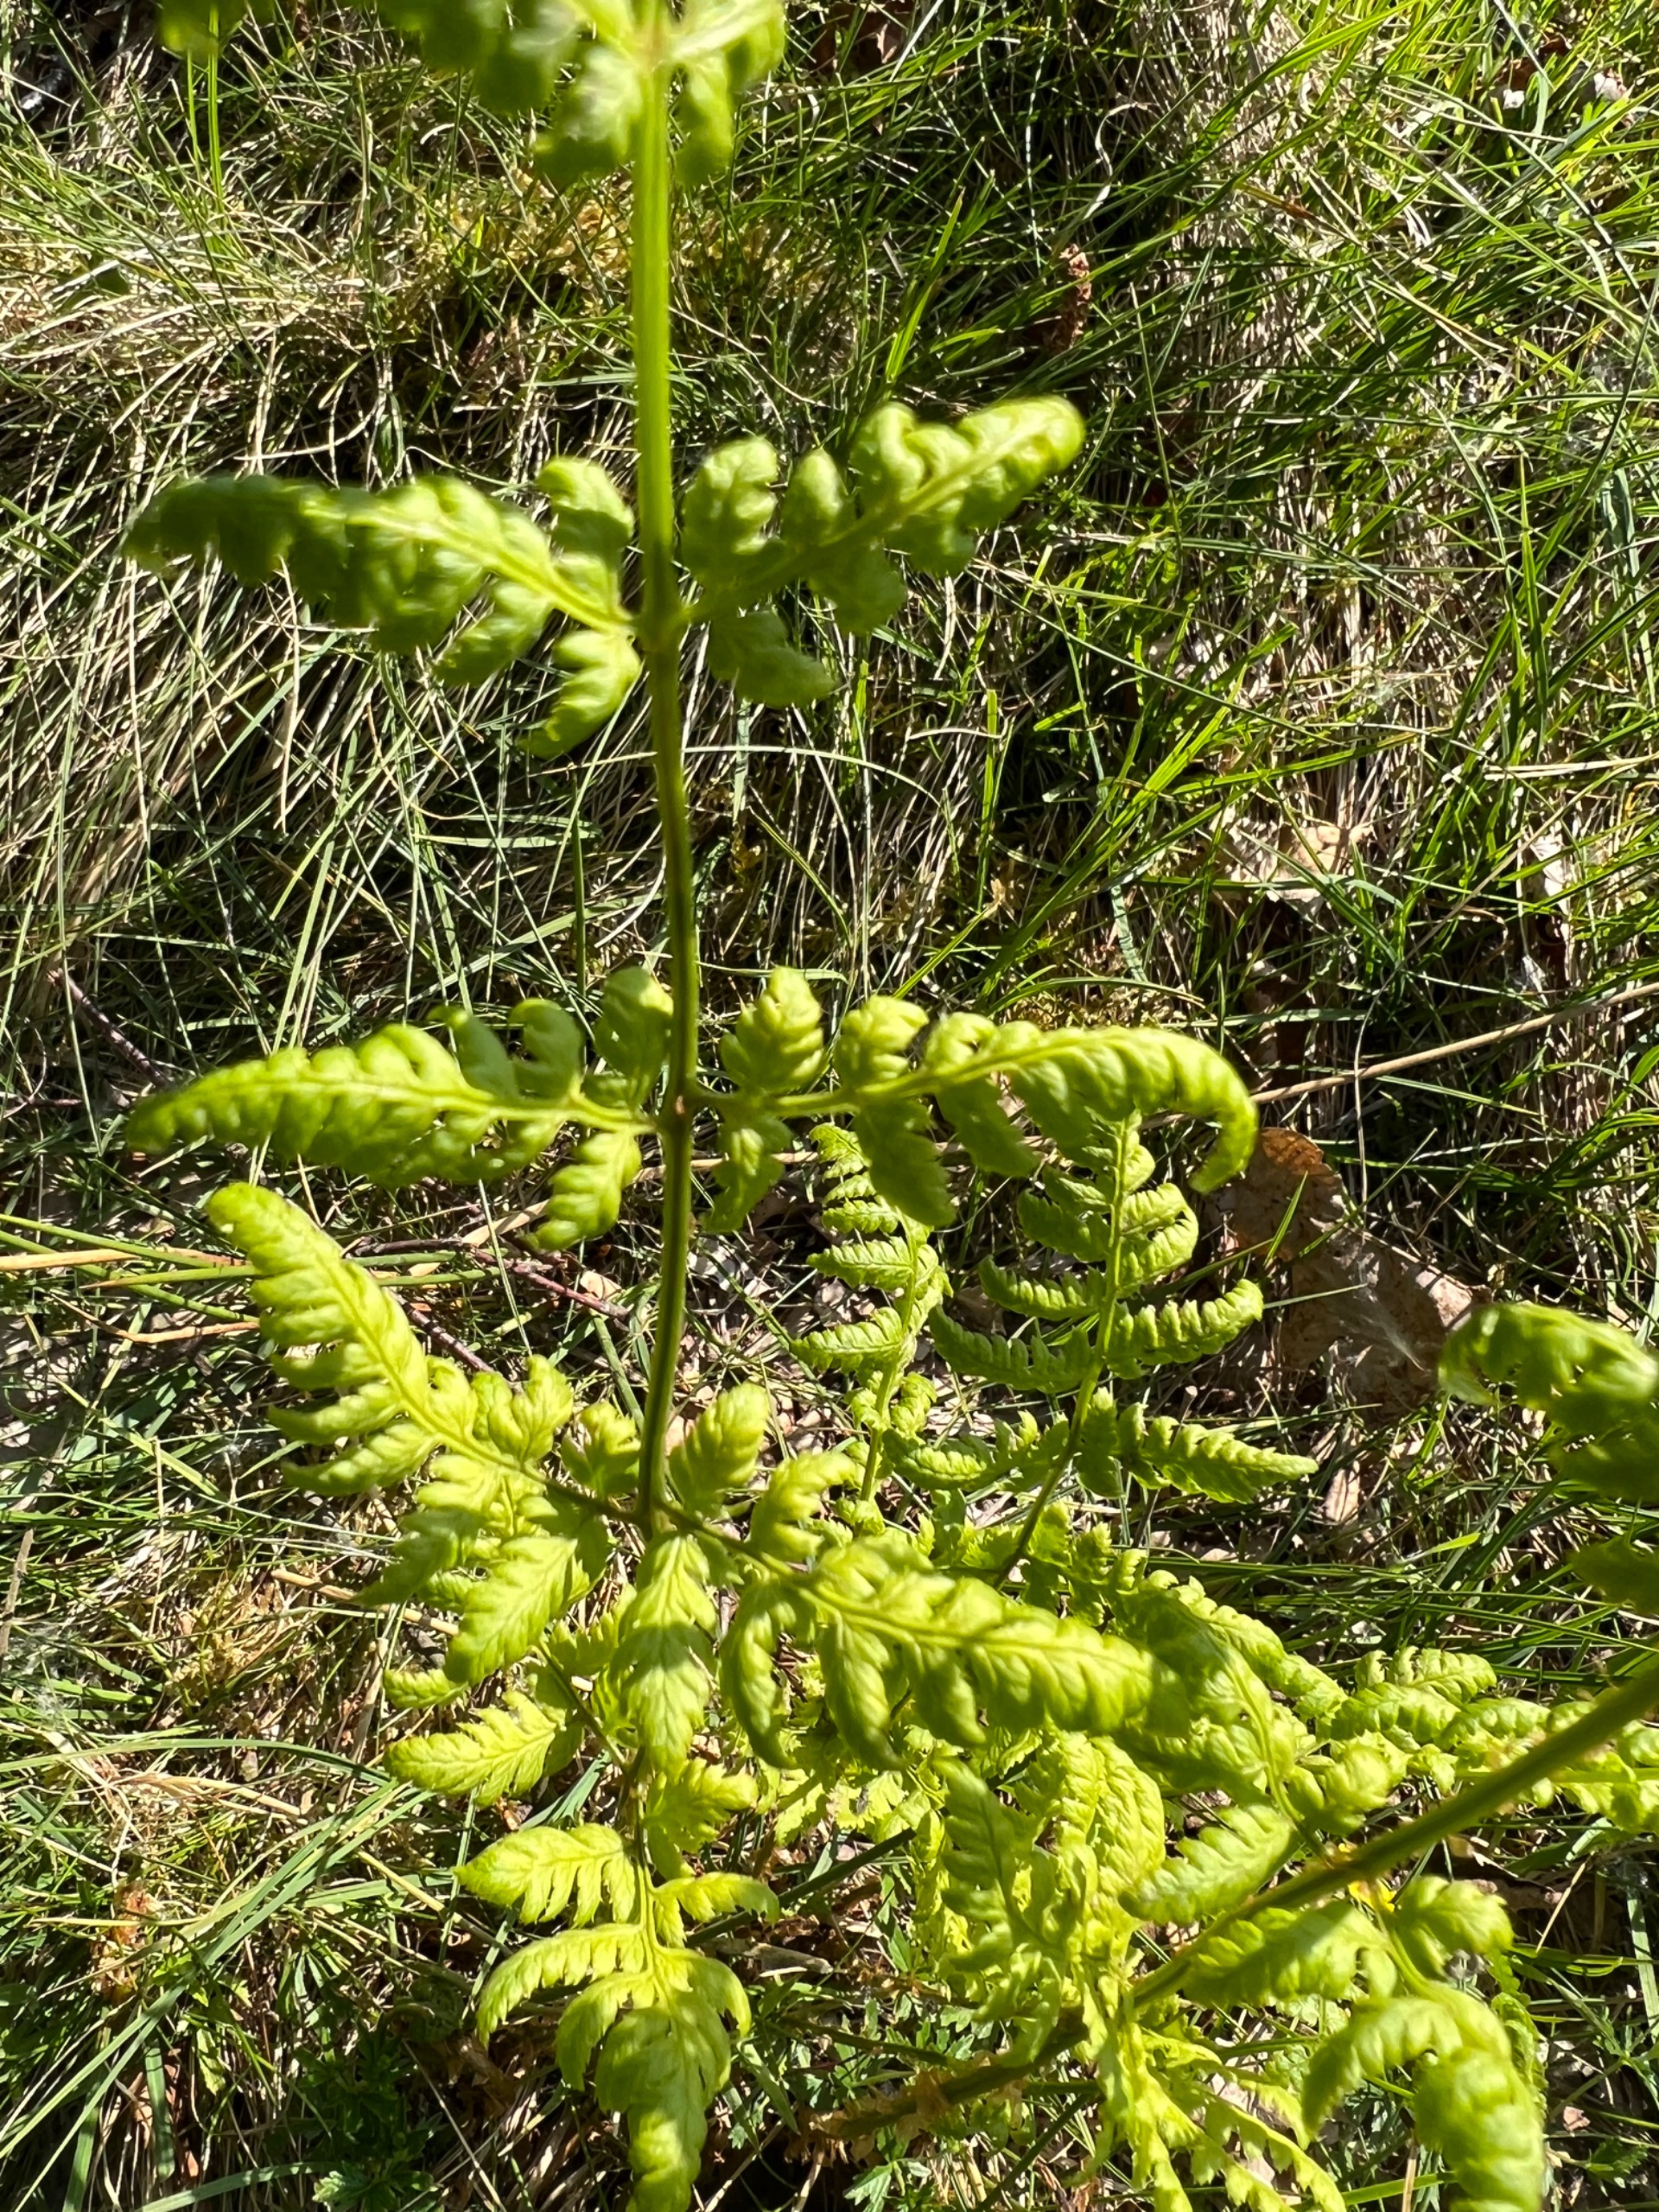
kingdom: Plantae
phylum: Tracheophyta
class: Polypodiopsida
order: Polypodiales
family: Dryopteridaceae
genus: Dryopteris
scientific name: Dryopteris carthusiana
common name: Smalbladet mangeløv
